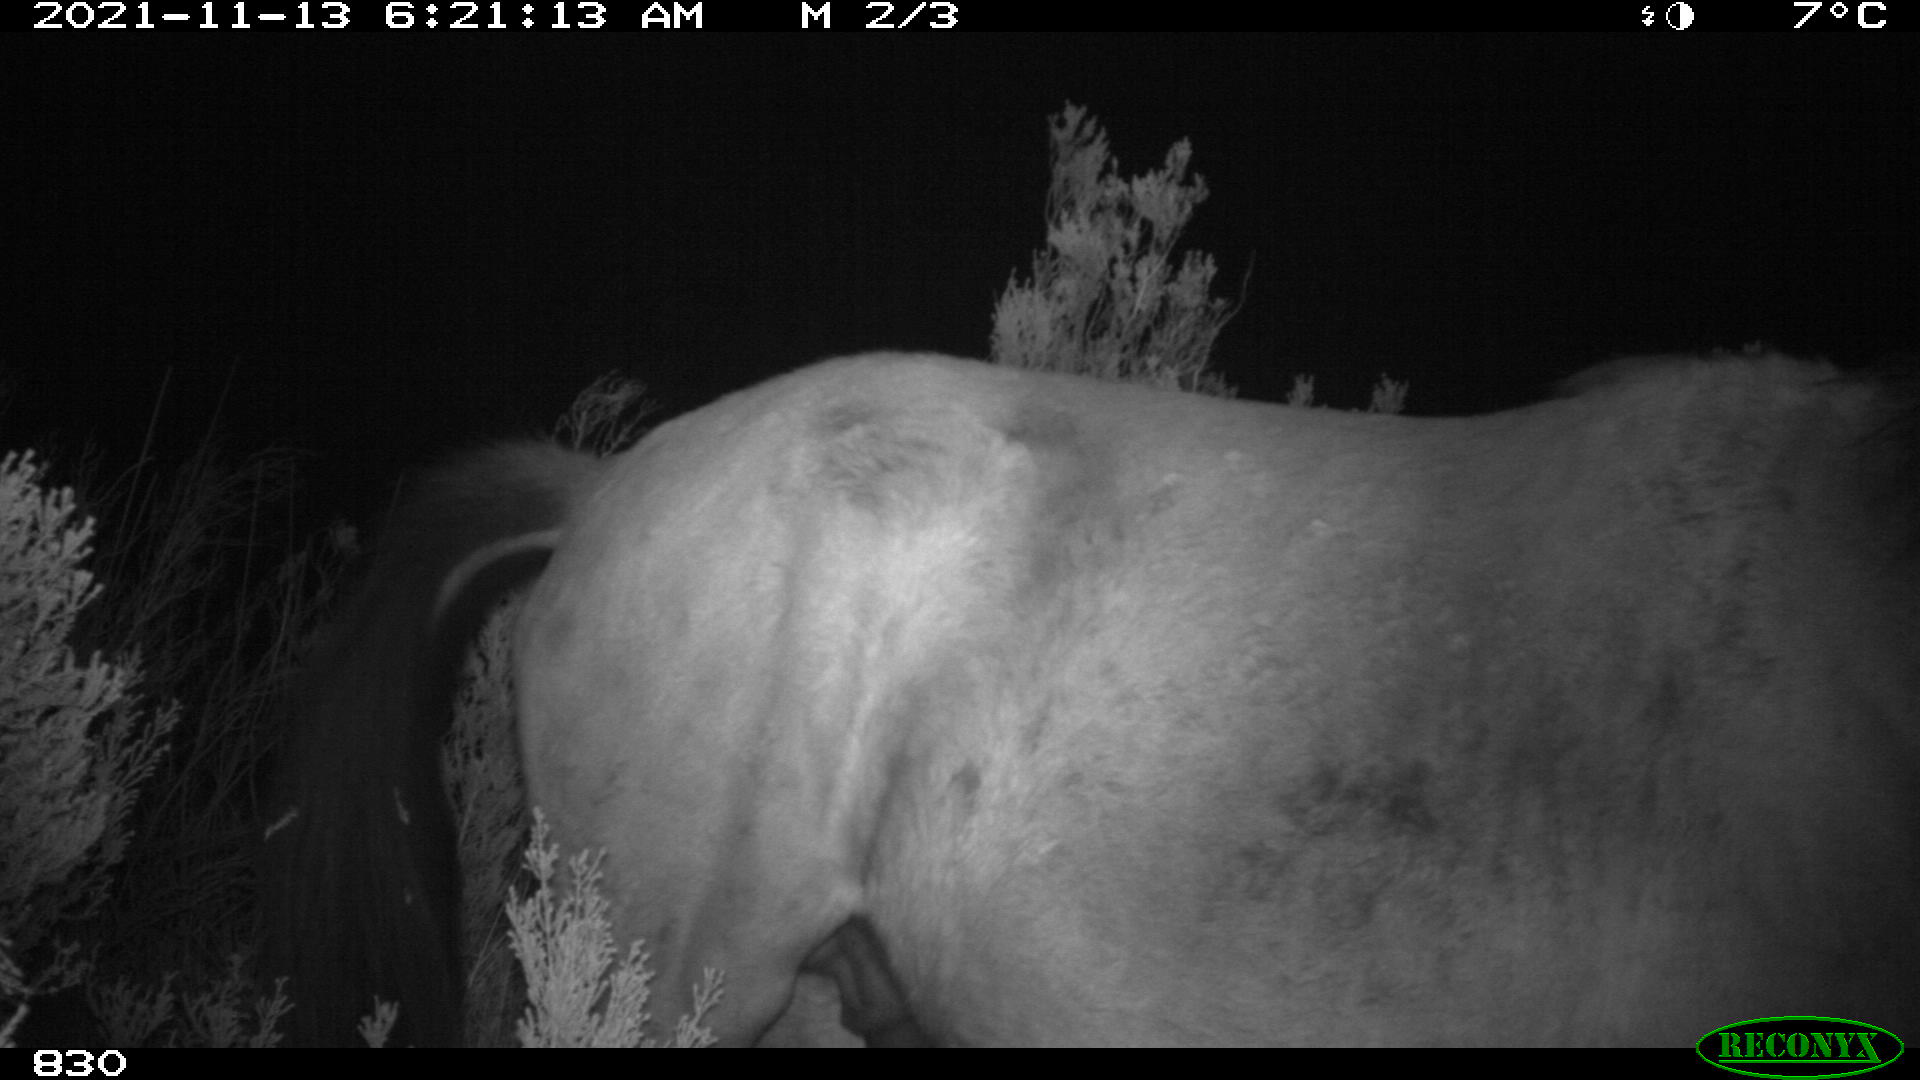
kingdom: Animalia
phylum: Chordata
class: Mammalia
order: Perissodactyla
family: Equidae
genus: Equus
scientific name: Equus caballus
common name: Horse
